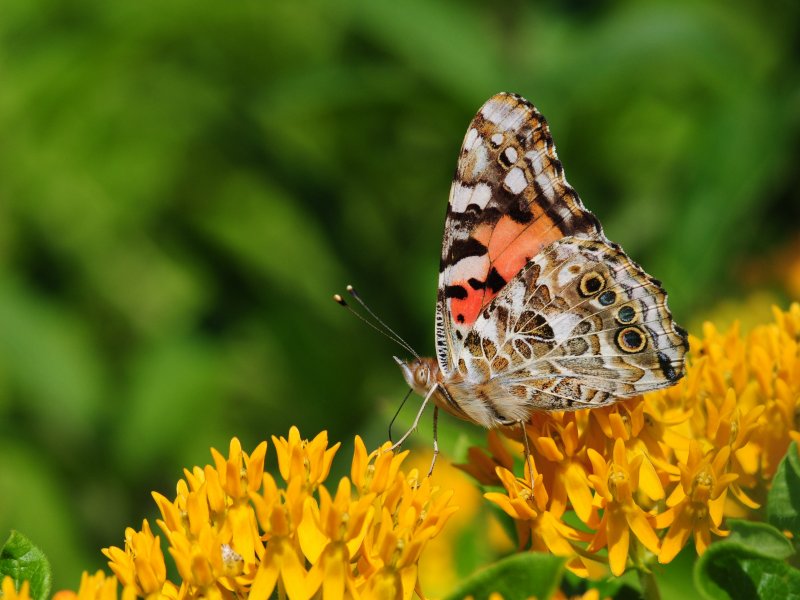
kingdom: Animalia
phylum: Arthropoda
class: Insecta
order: Lepidoptera
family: Nymphalidae
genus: Vanessa
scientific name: Vanessa cardui
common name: Painted Lady
